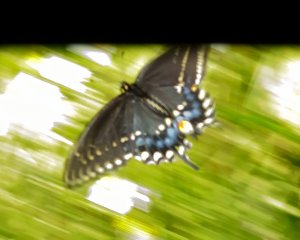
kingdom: Animalia
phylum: Arthropoda
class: Insecta
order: Lepidoptera
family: Papilionidae
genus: Papilio
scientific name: Papilio polyxenes
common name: Black Swallowtail
